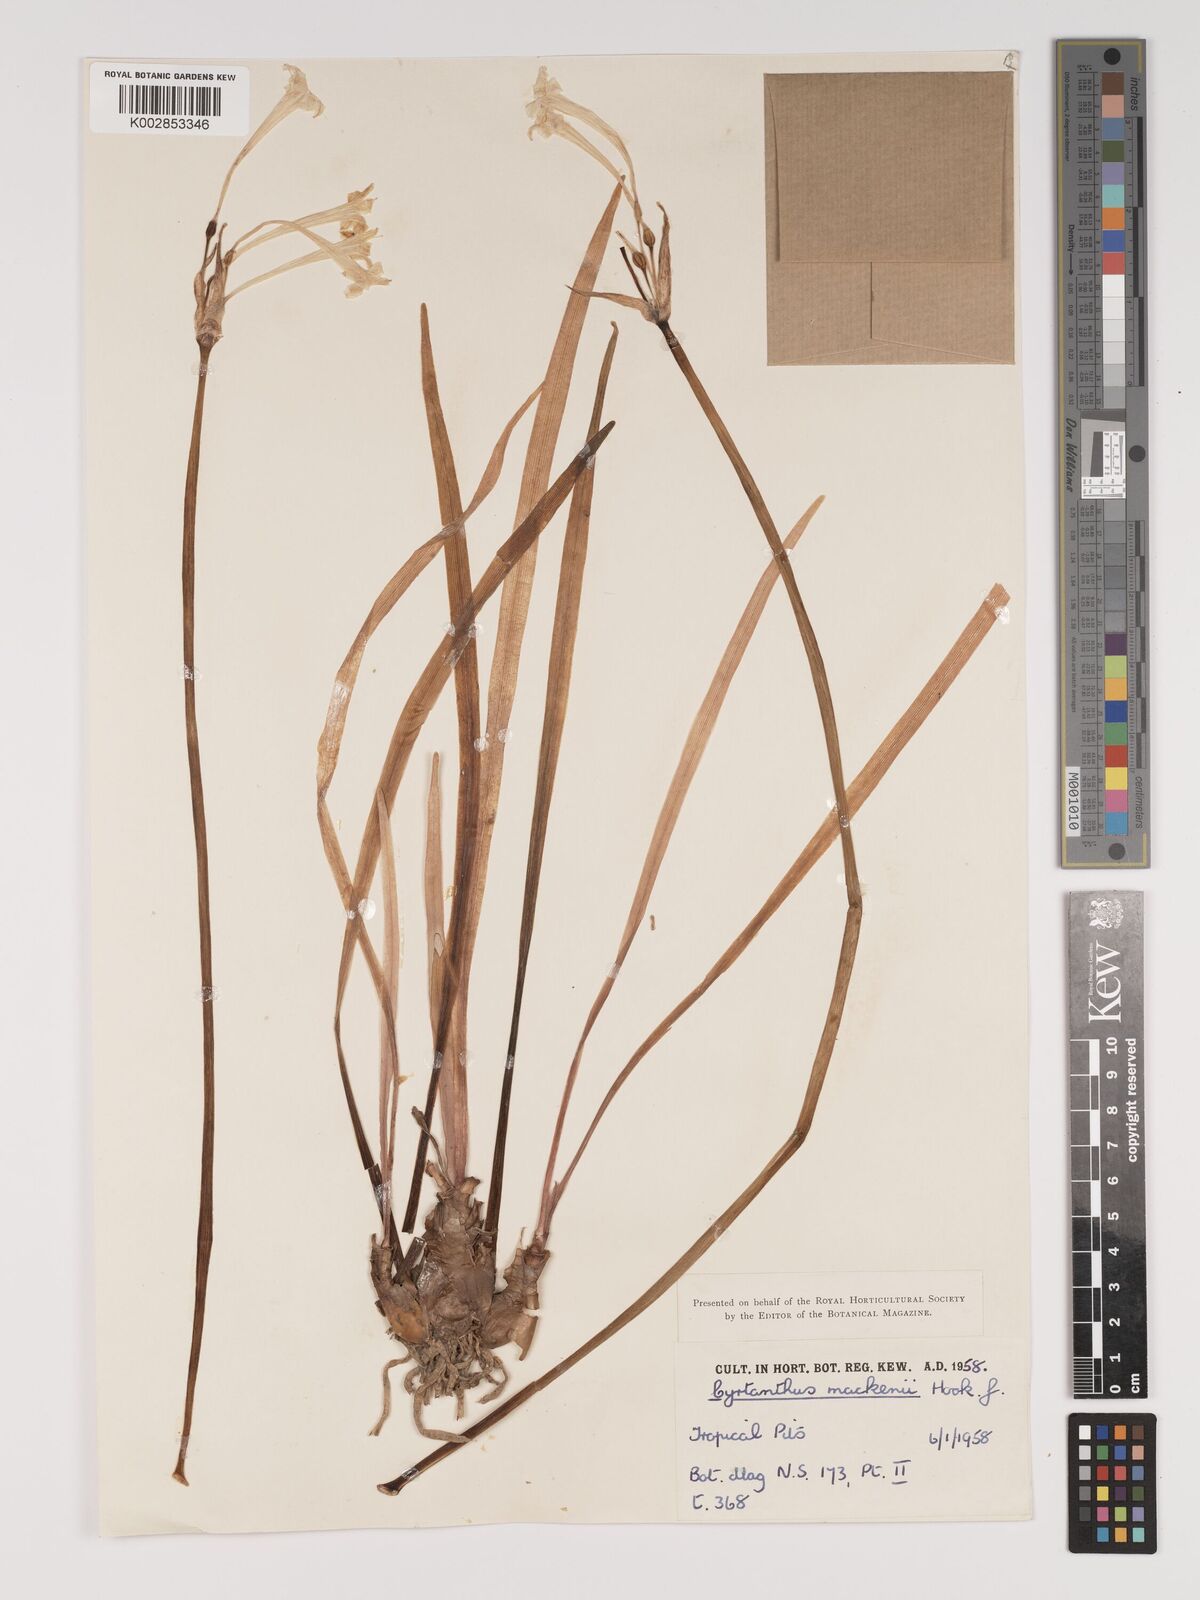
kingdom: Plantae
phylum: Tracheophyta
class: Liliopsida
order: Asparagales
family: Amaryllidaceae
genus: Cyrtanthus
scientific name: Cyrtanthus mackenii
